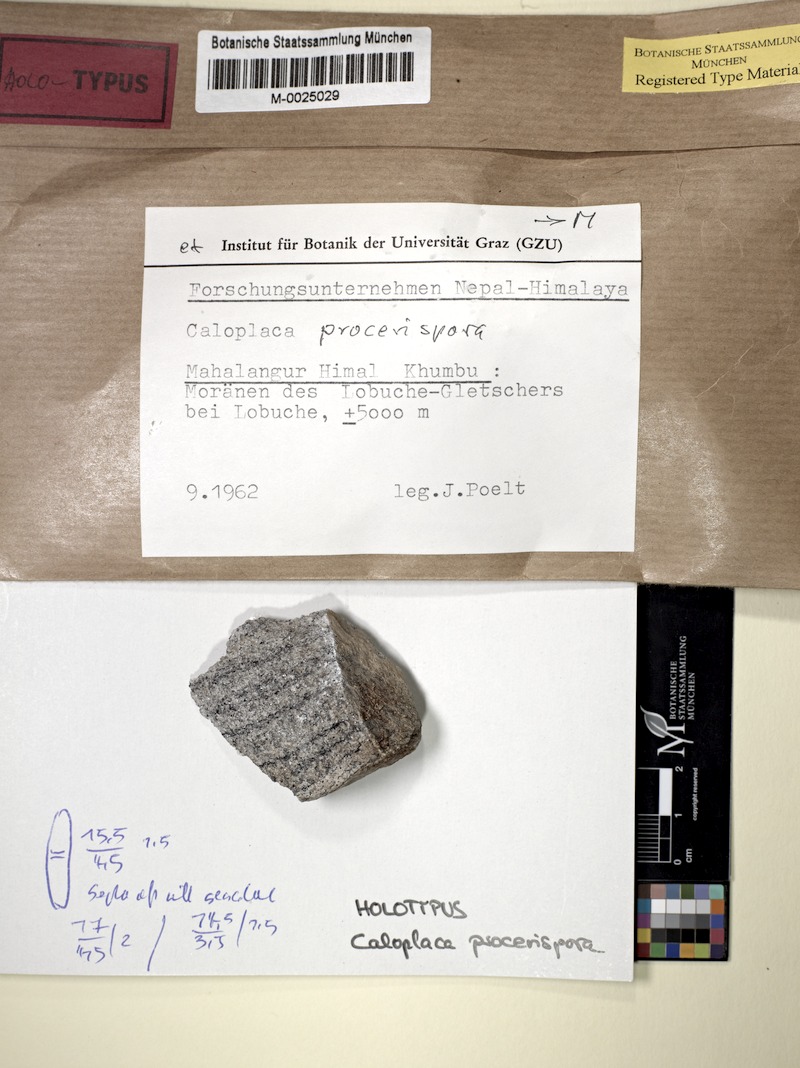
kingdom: Fungi
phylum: Ascomycota
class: Lecanoromycetes
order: Teloschistales
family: Teloschistaceae
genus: Caloplaca
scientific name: Caloplaca
